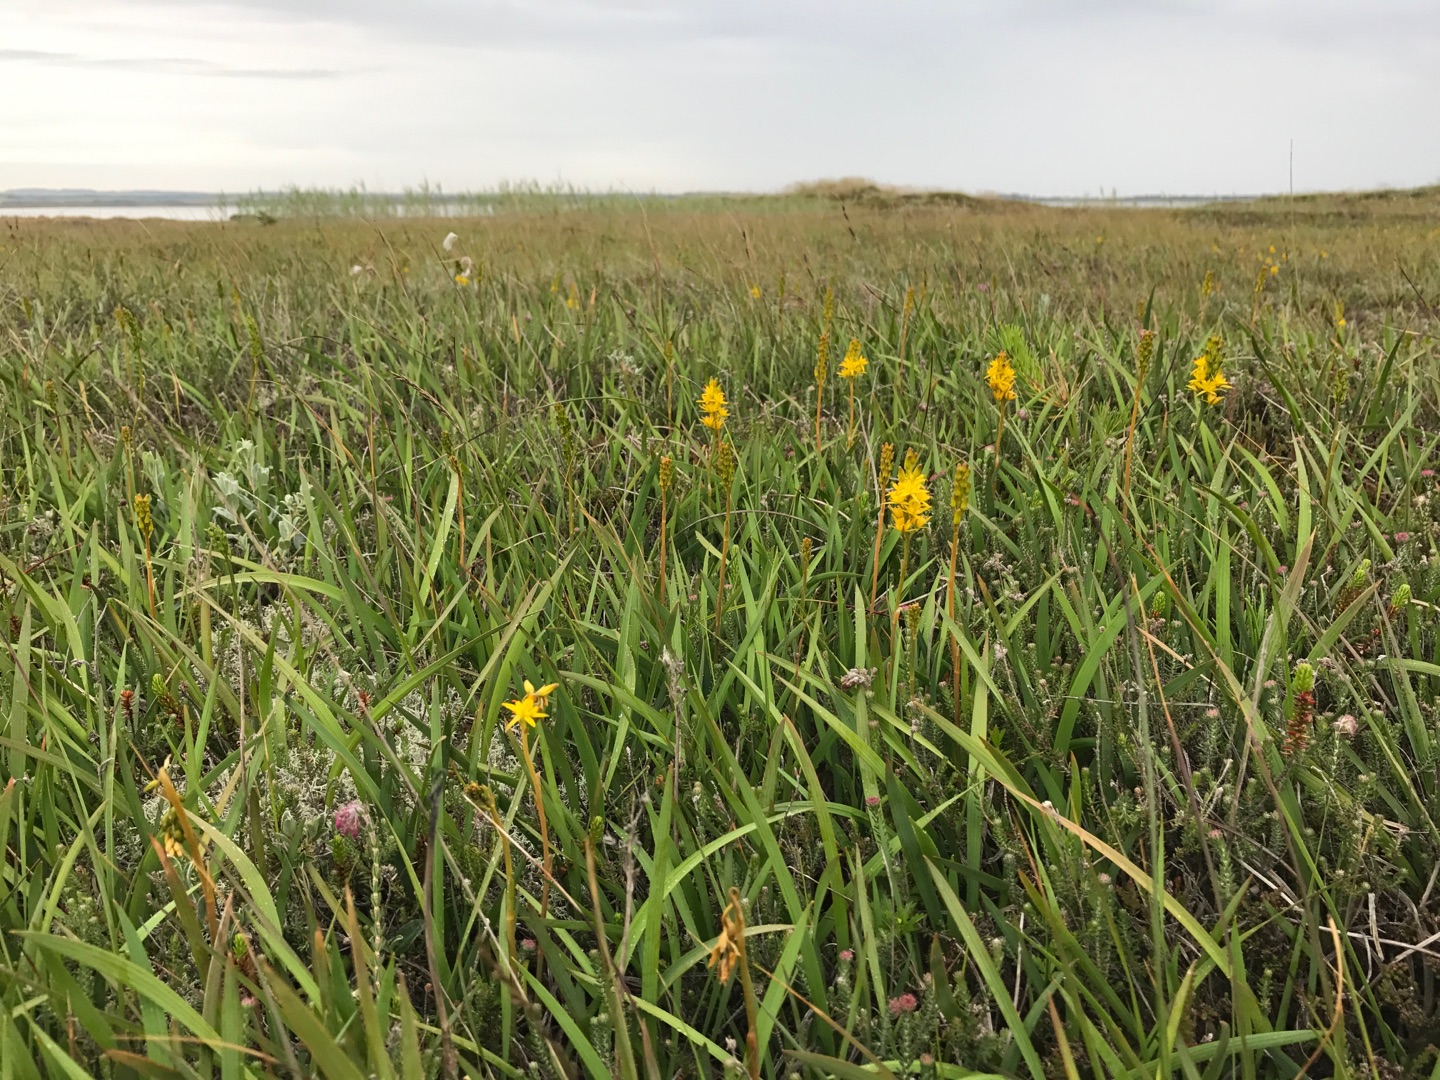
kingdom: Plantae
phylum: Tracheophyta
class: Liliopsida
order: Dioscoreales
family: Nartheciaceae
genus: Narthecium
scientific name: Narthecium ossifragum
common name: Benbræk
